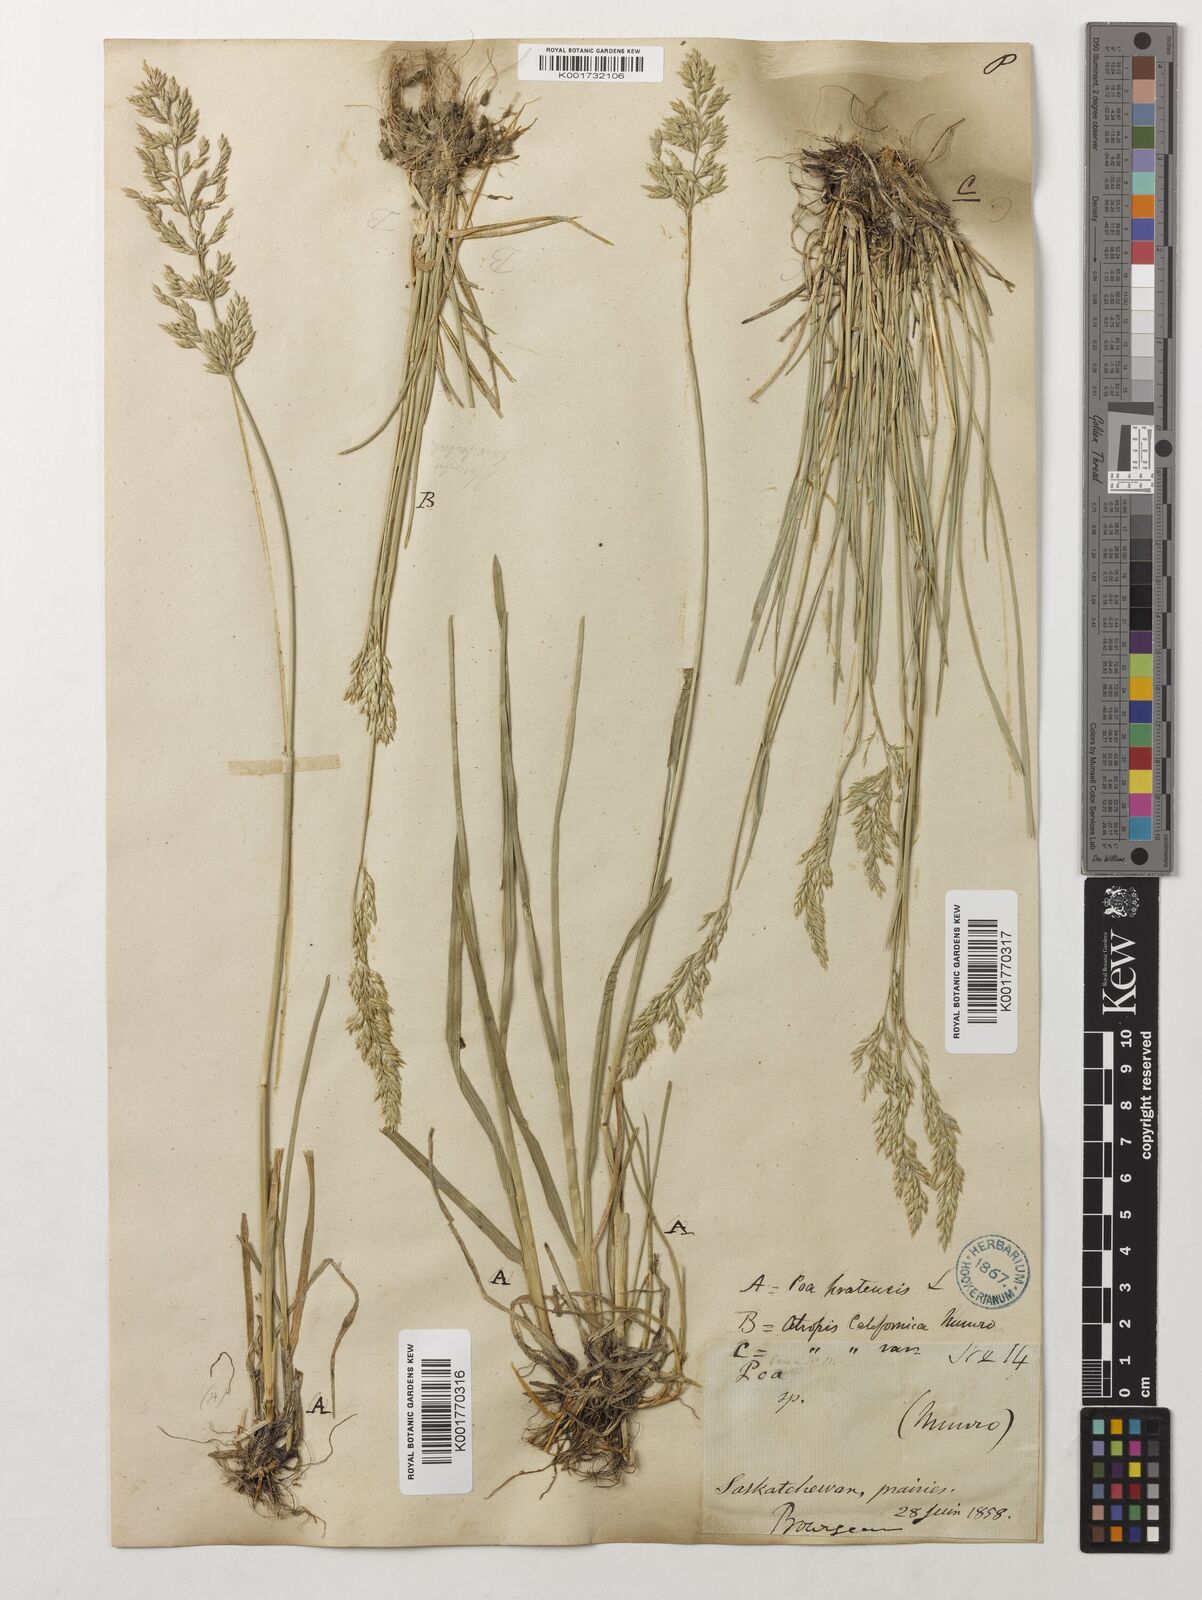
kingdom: Plantae
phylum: Tracheophyta
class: Liliopsida
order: Poales
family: Poaceae
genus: Poa
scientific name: Poa fendleriana
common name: Mutton bluegrass
